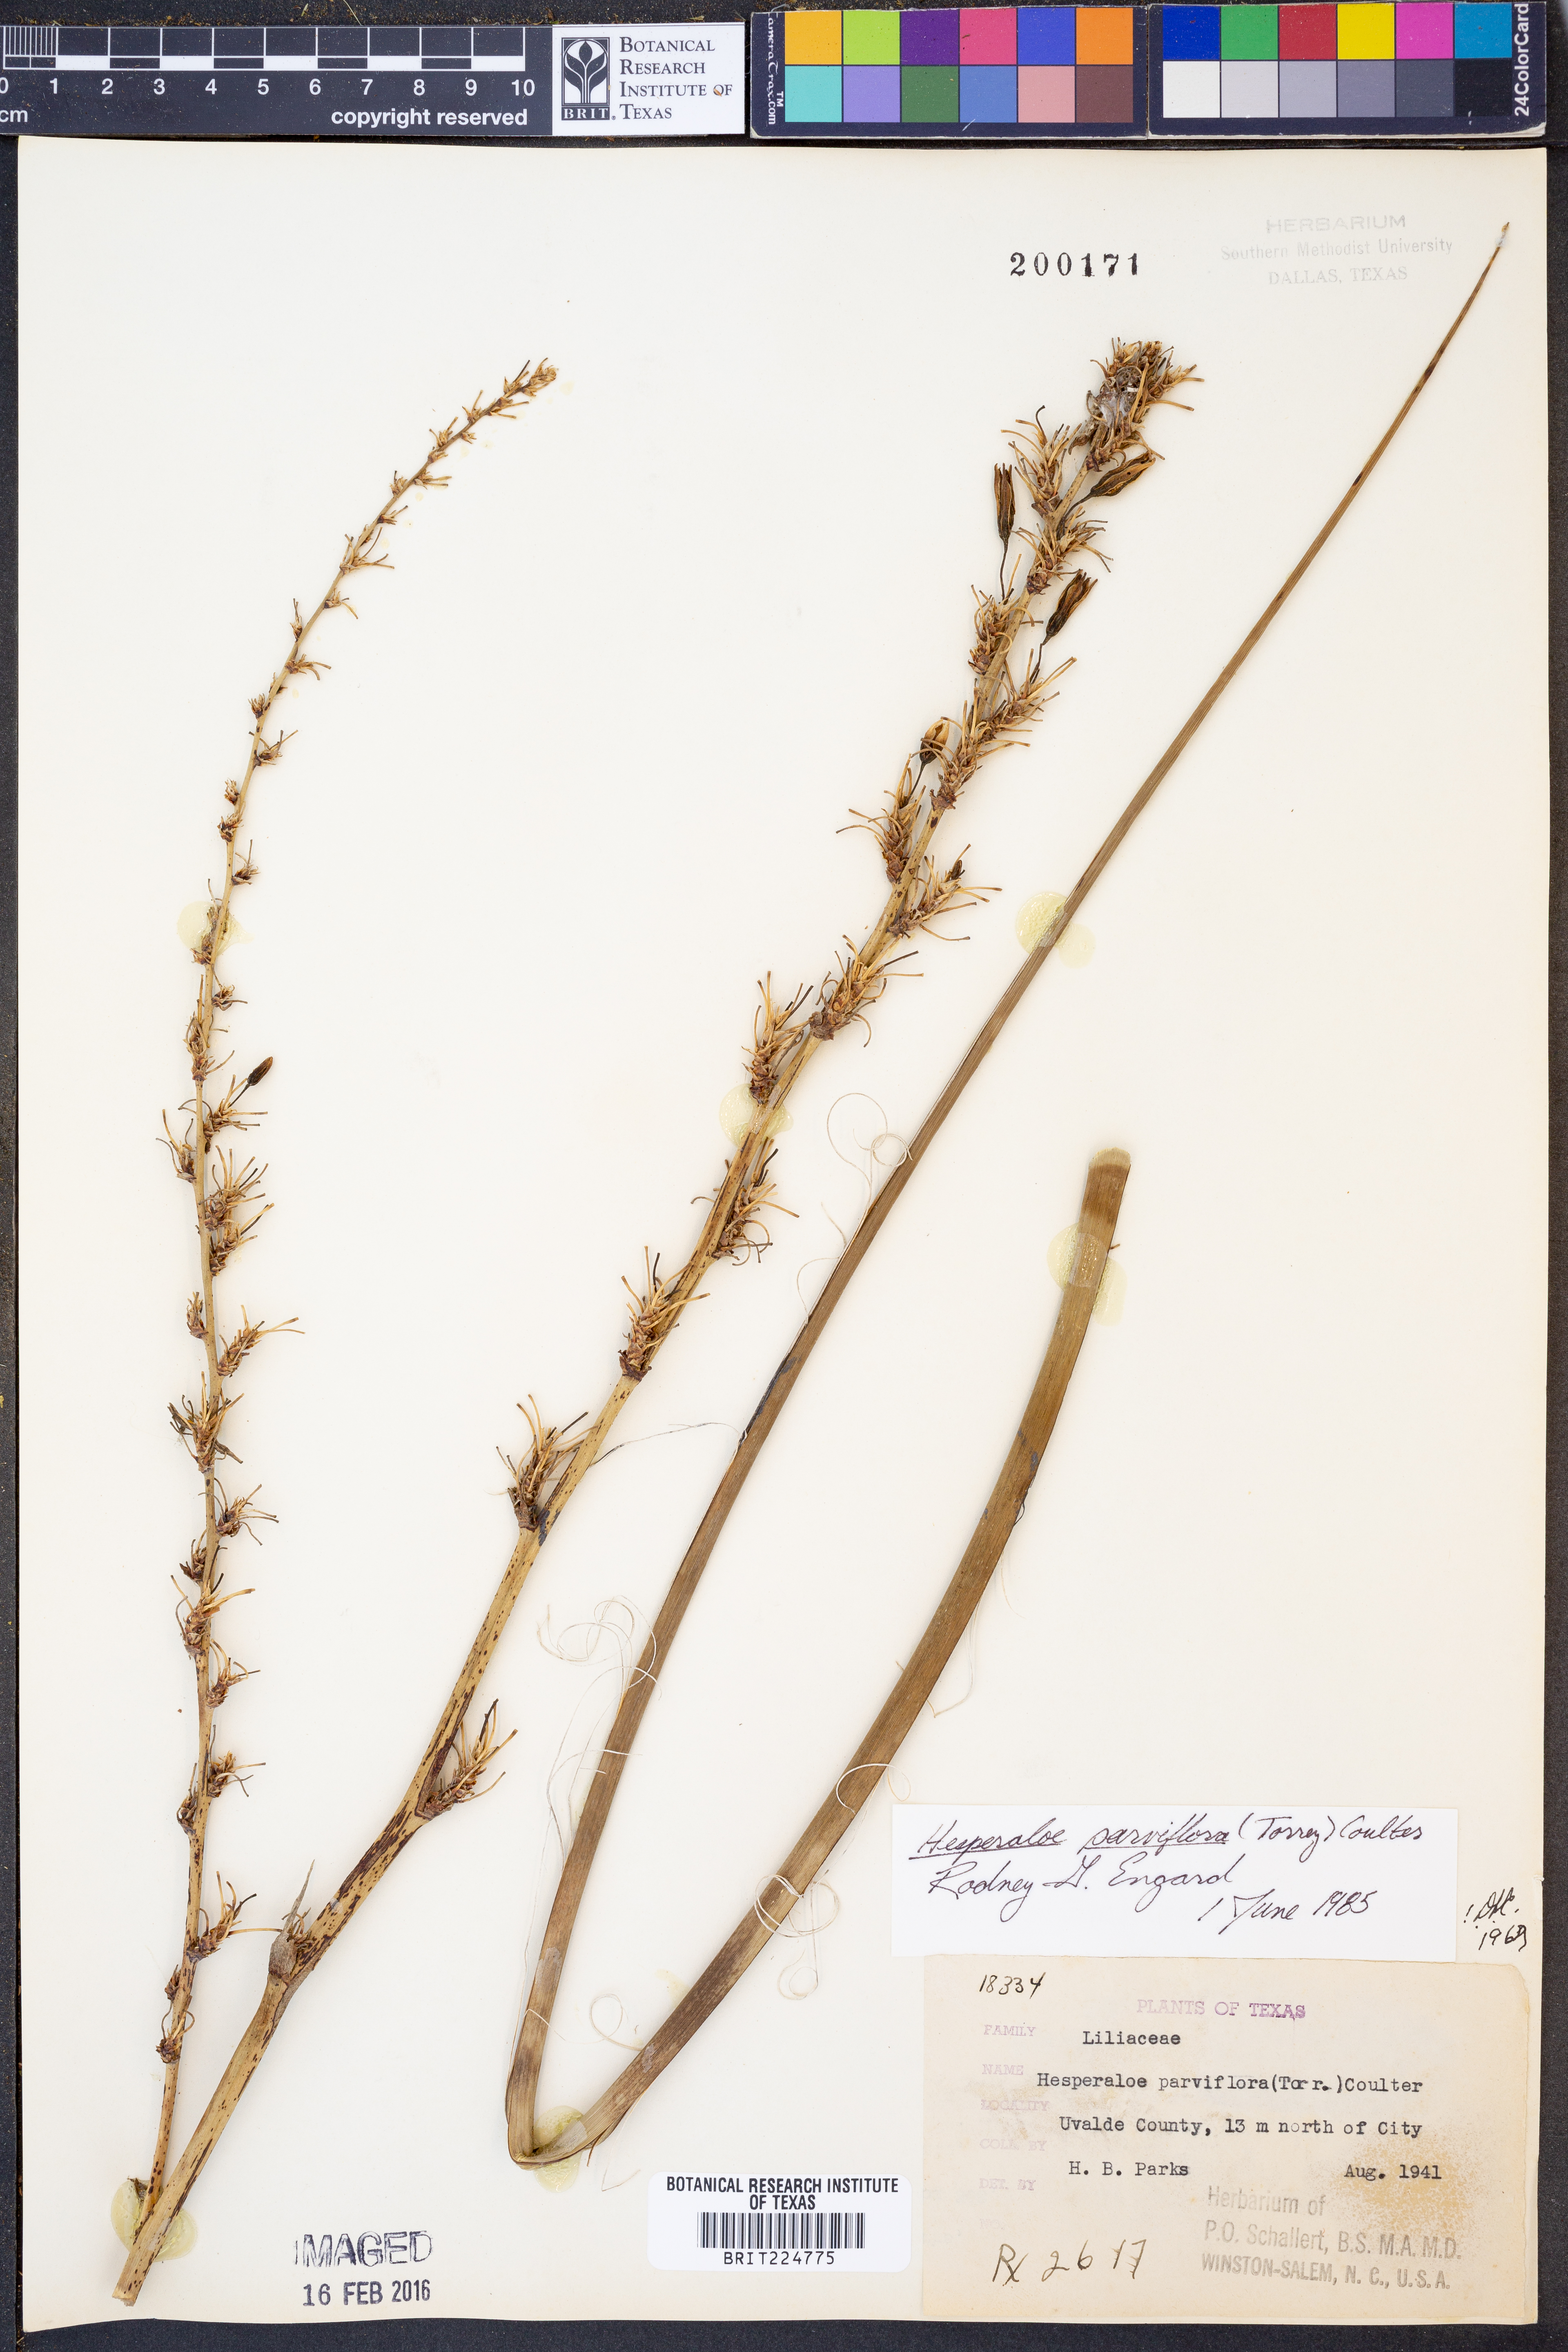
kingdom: Plantae
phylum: Tracheophyta
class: Liliopsida
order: Asparagales
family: Asparagaceae
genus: Hesperaloe
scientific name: Hesperaloe parviflora
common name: Red hesperaloe
